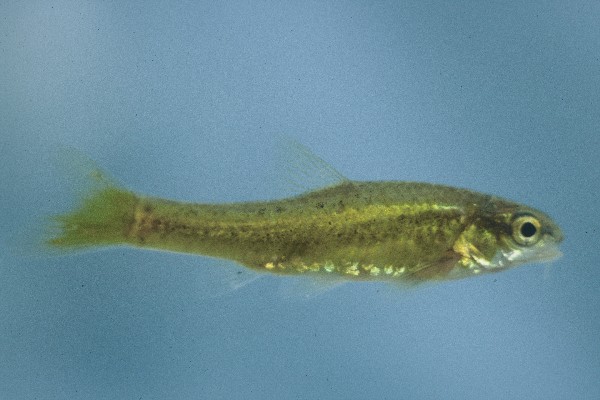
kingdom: Animalia
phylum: Chordata
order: Cypriniformes
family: Cyprinidae
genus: Enteromius
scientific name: Enteromius pallidus
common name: Goldie barb
